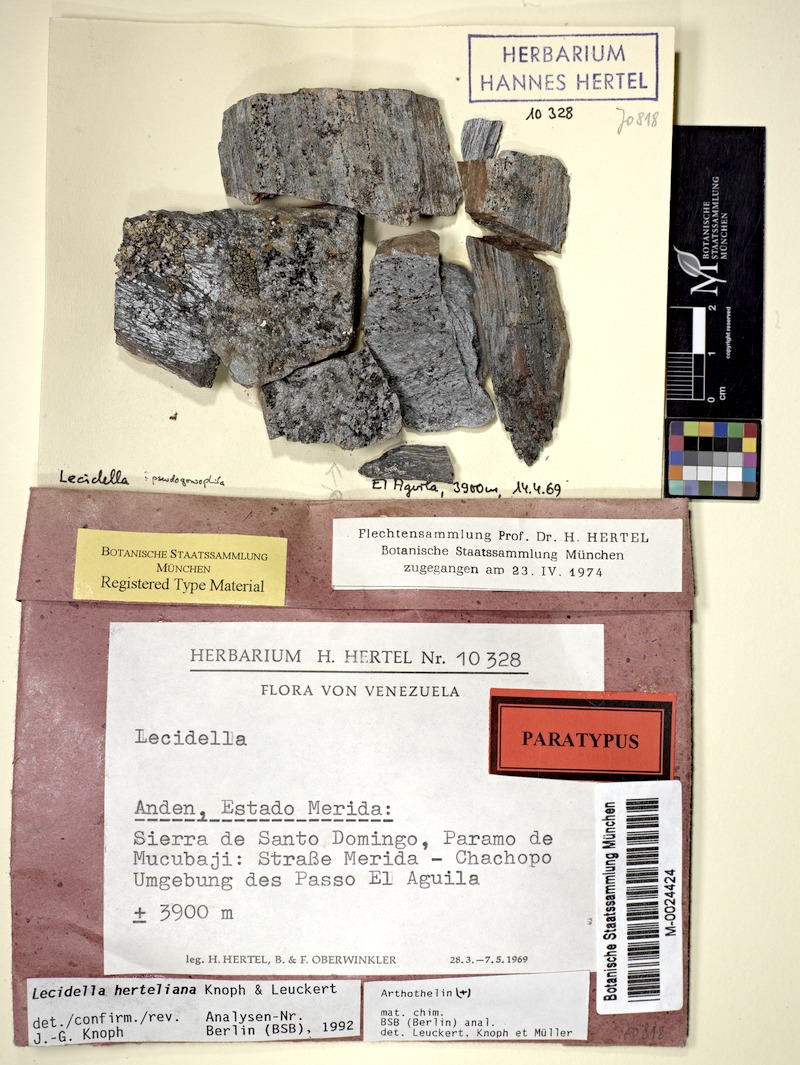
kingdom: Fungi
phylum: Ascomycota
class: Lecanoromycetes
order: Lecanorales
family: Lecanoraceae
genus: Lecidella
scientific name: Lecidella
